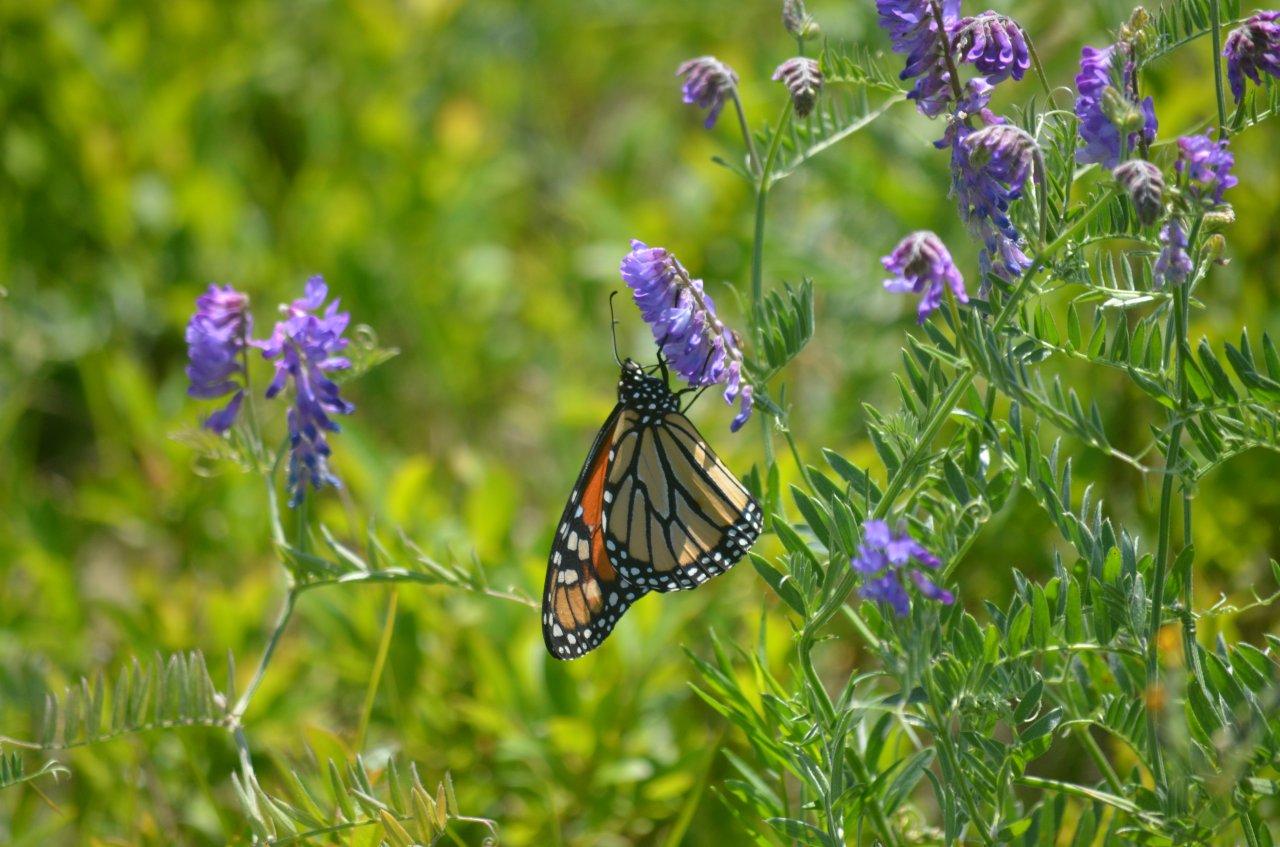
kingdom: Animalia
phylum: Arthropoda
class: Insecta
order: Lepidoptera
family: Nymphalidae
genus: Danaus
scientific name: Danaus plexippus
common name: Monarch
